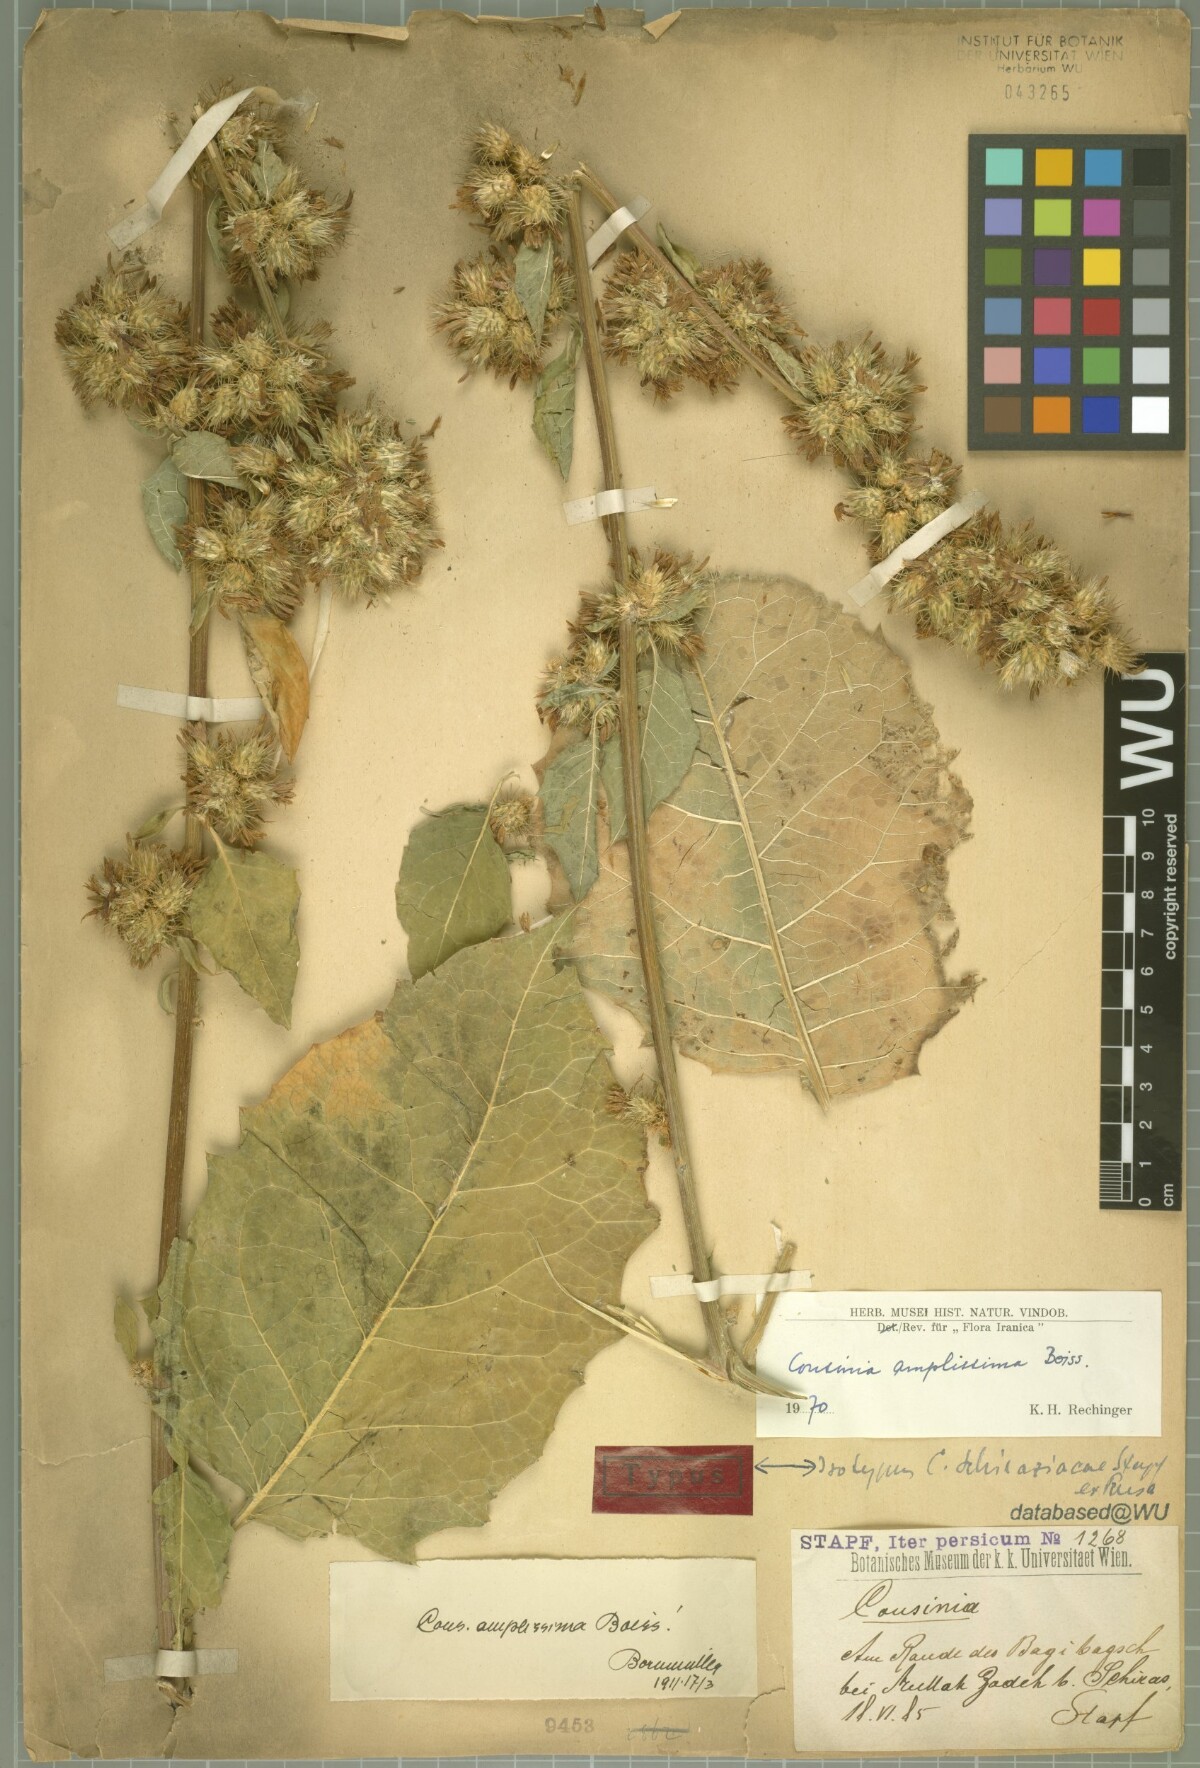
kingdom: Plantae
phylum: Tracheophyta
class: Magnoliopsida
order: Asterales
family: Asteraceae
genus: Arctium
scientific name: Arctium amplissimum
